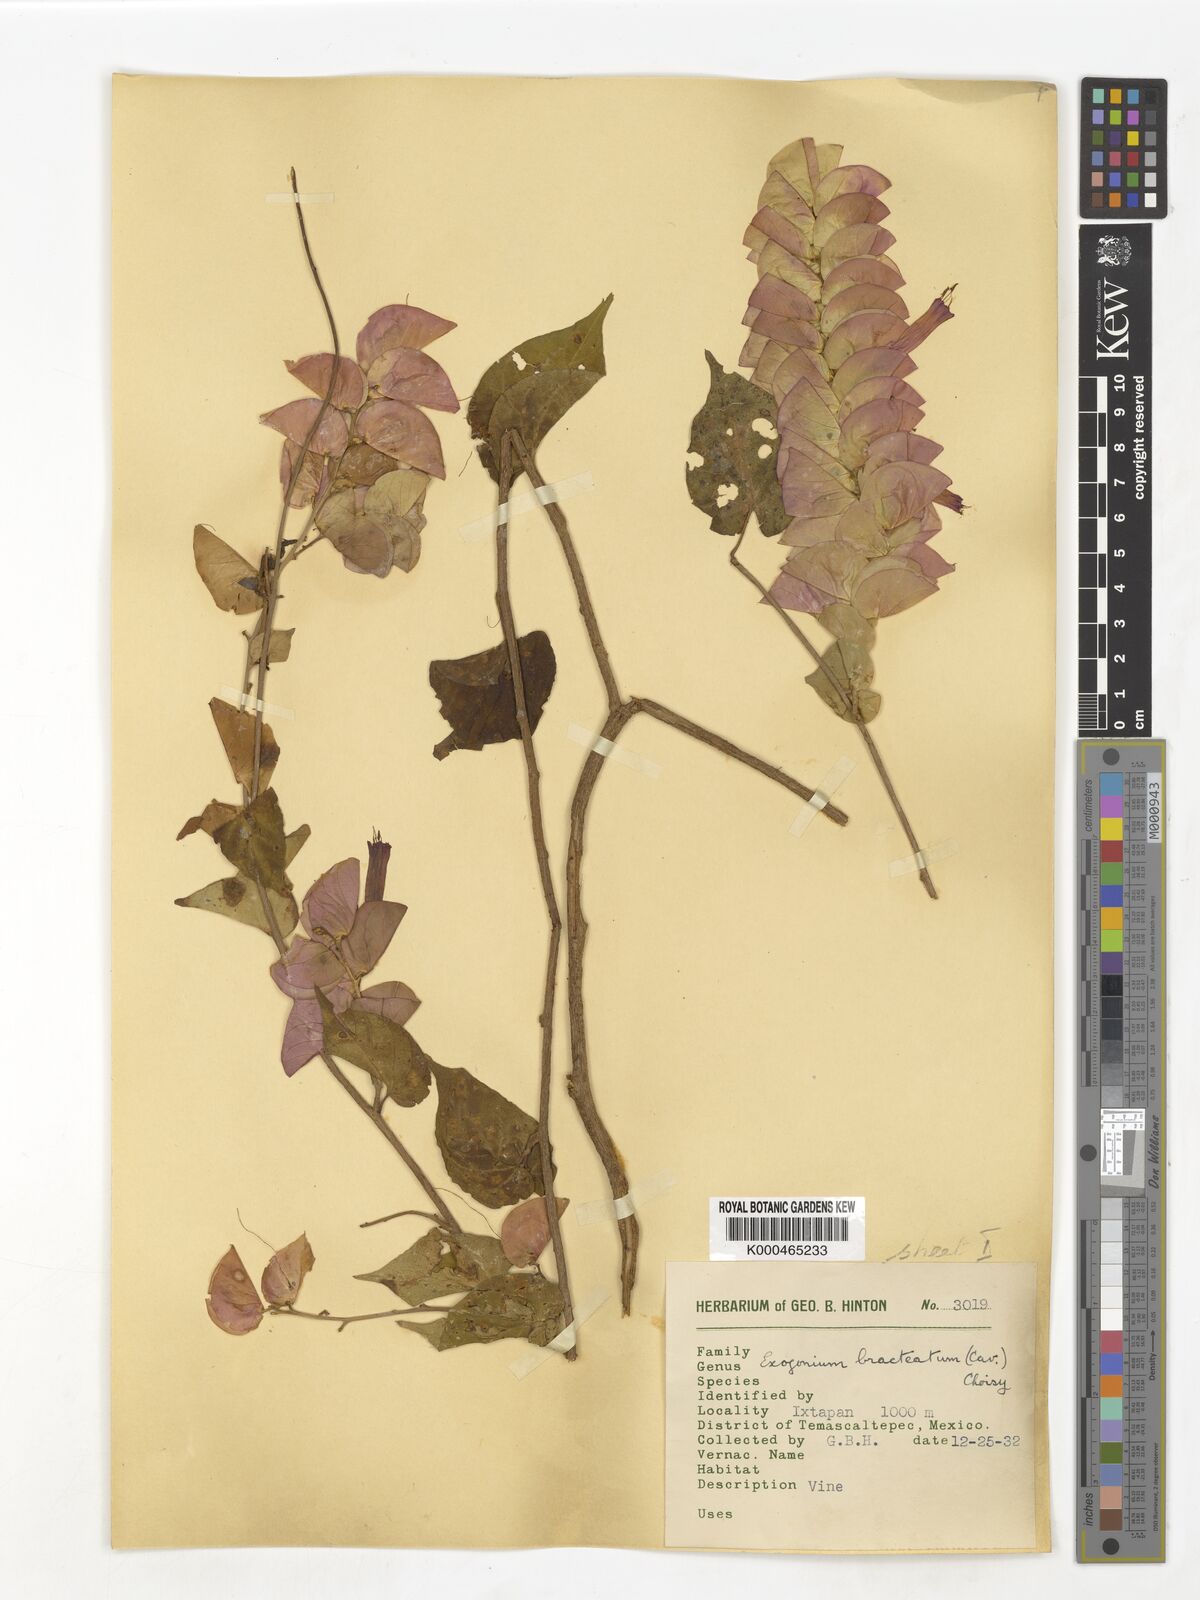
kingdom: Plantae
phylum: Tracheophyta
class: Magnoliopsida
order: Solanales
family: Convolvulaceae
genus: Ipomoea
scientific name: Ipomoea bracteata
